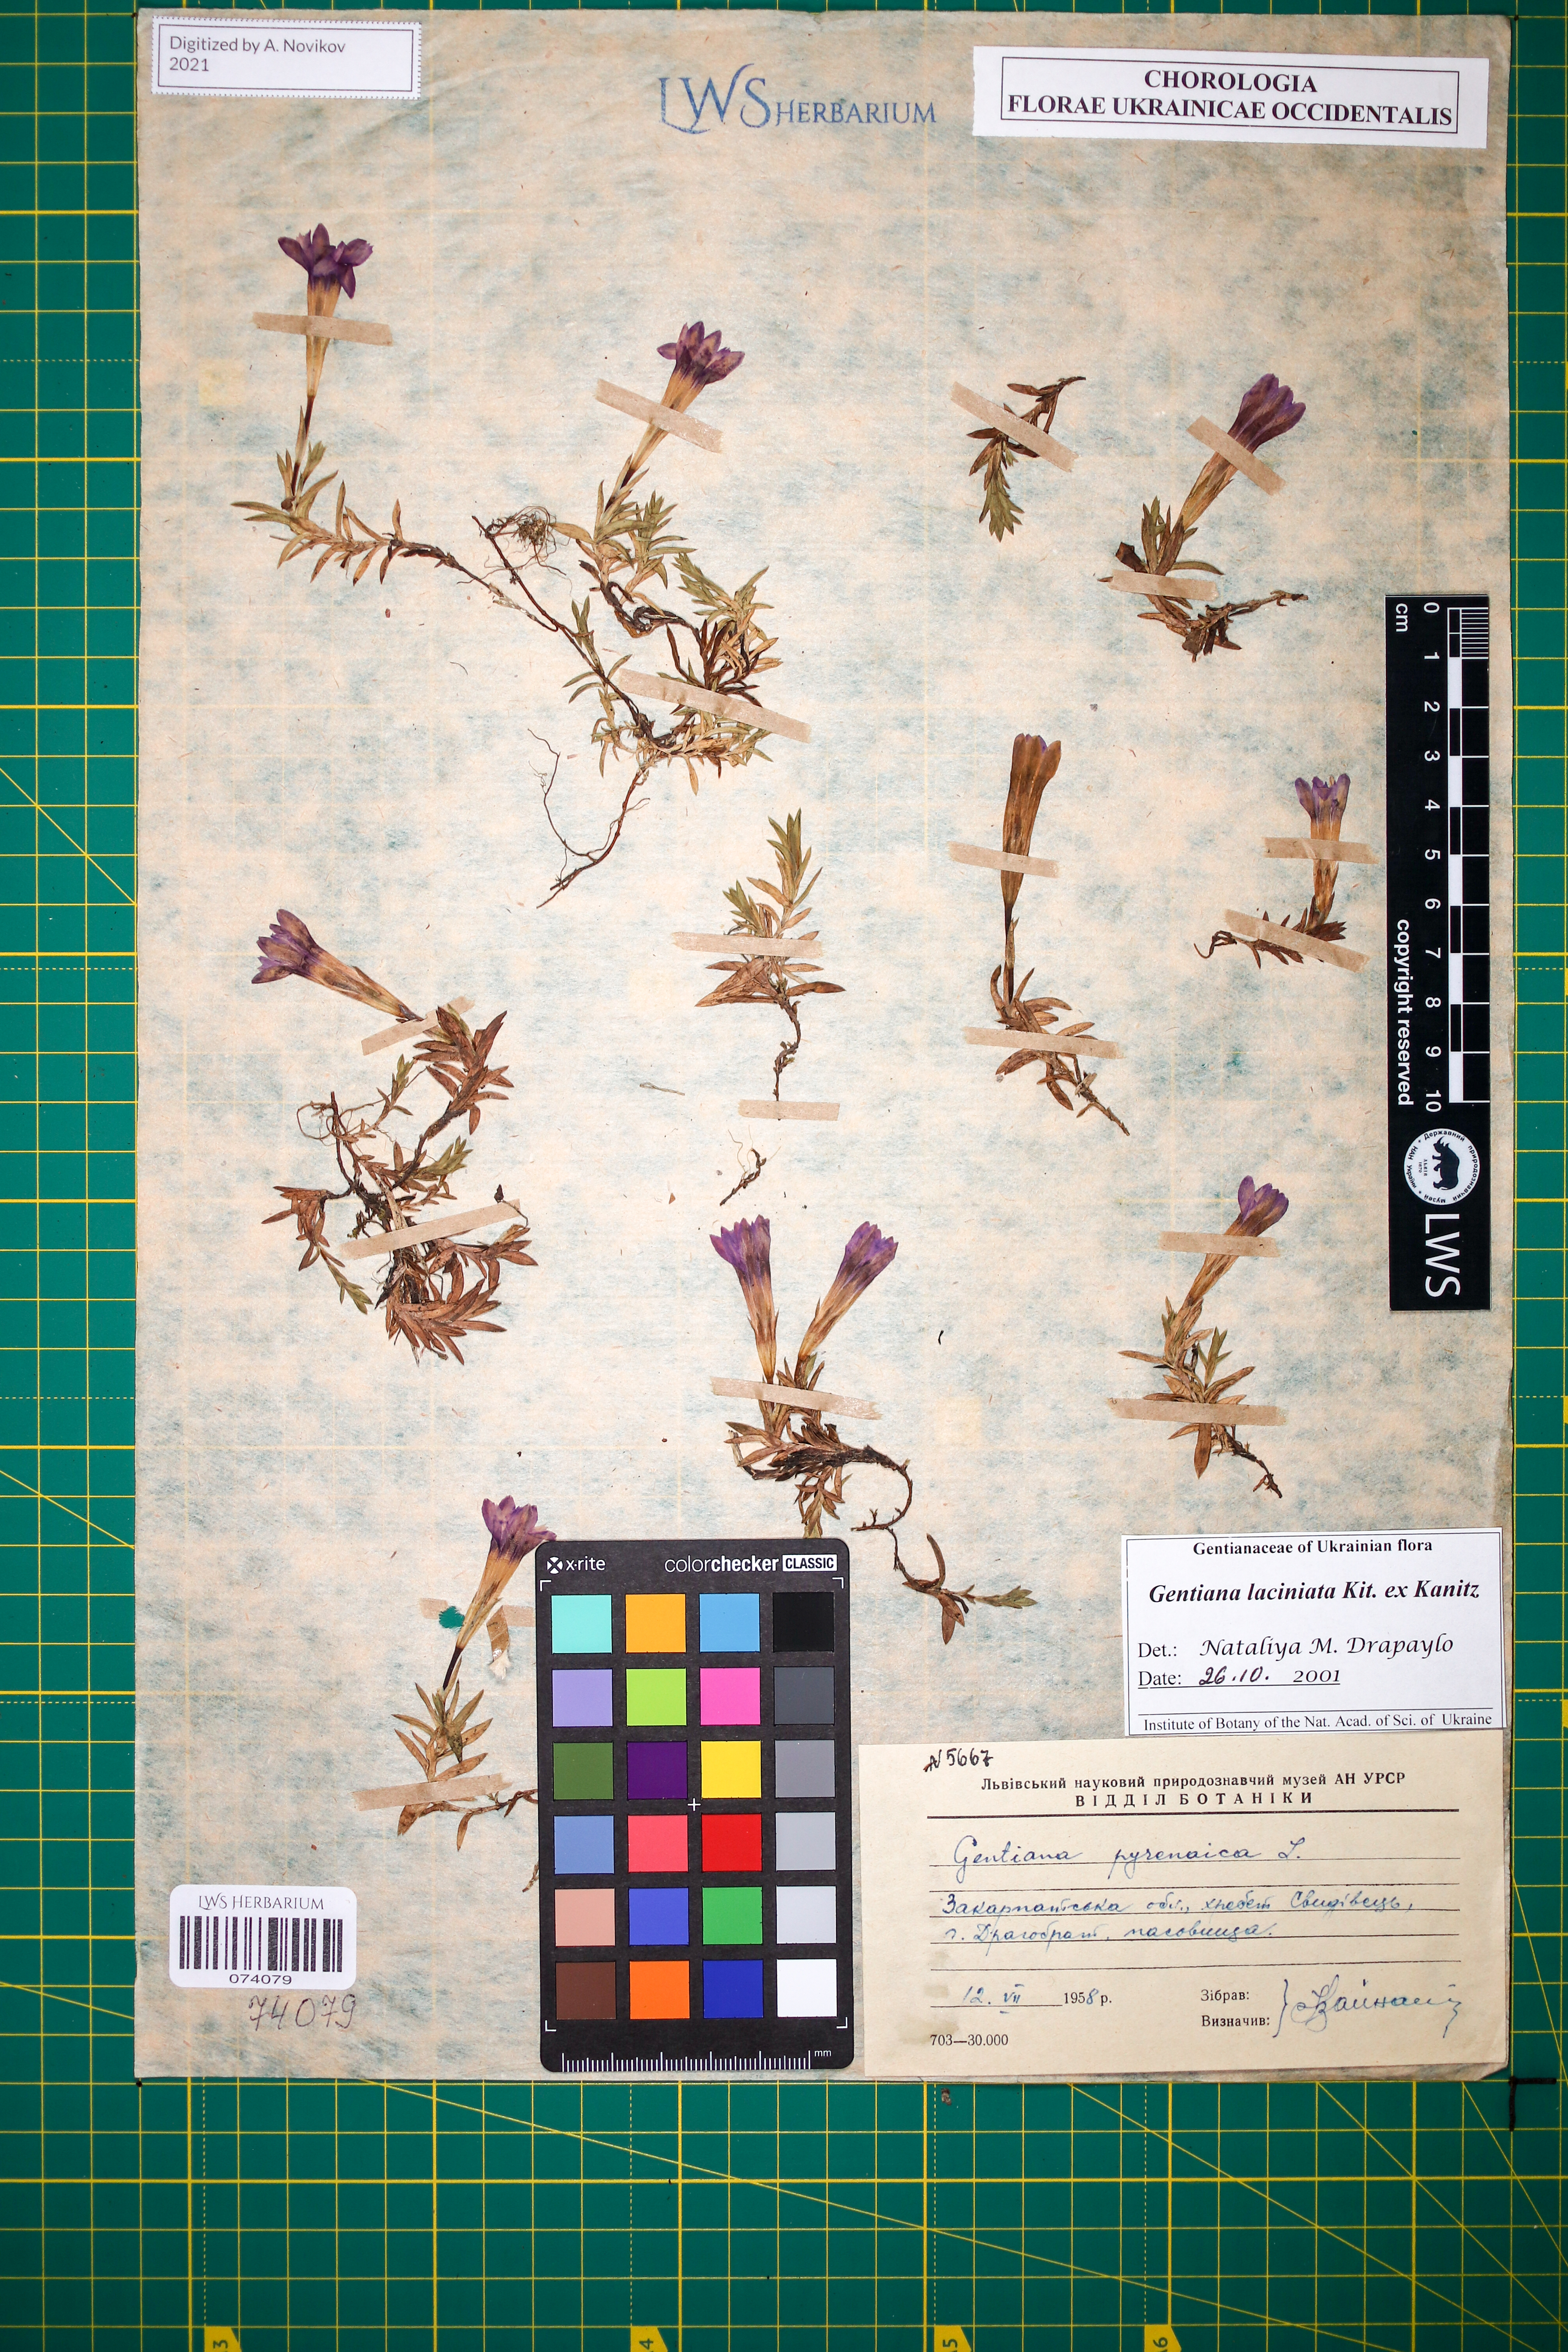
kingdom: Plantae
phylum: Tracheophyta
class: Magnoliopsida
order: Gentianales
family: Gentianaceae
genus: Gentiana
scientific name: Gentiana laciniata
